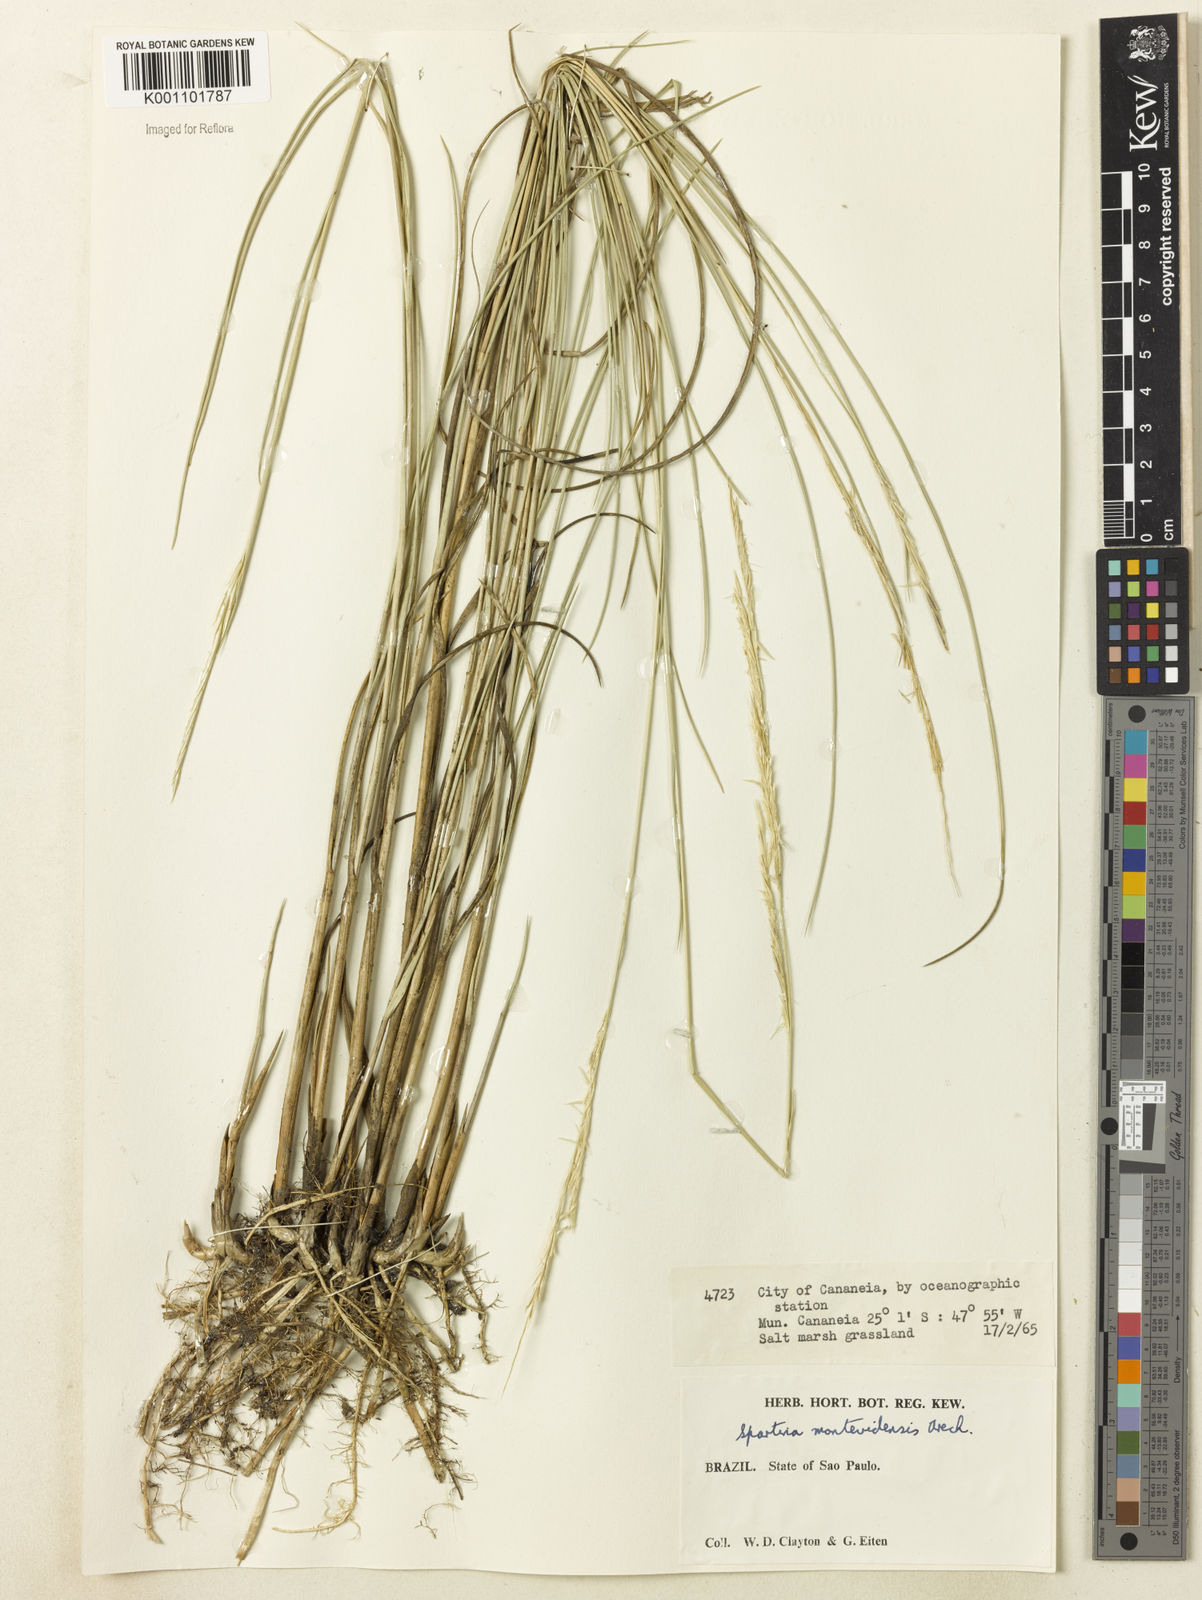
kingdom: Plantae
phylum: Tracheophyta
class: Liliopsida
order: Poales
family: Poaceae
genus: Sporobolus
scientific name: Sporobolus montevidensis
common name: Montevideo dropseed
